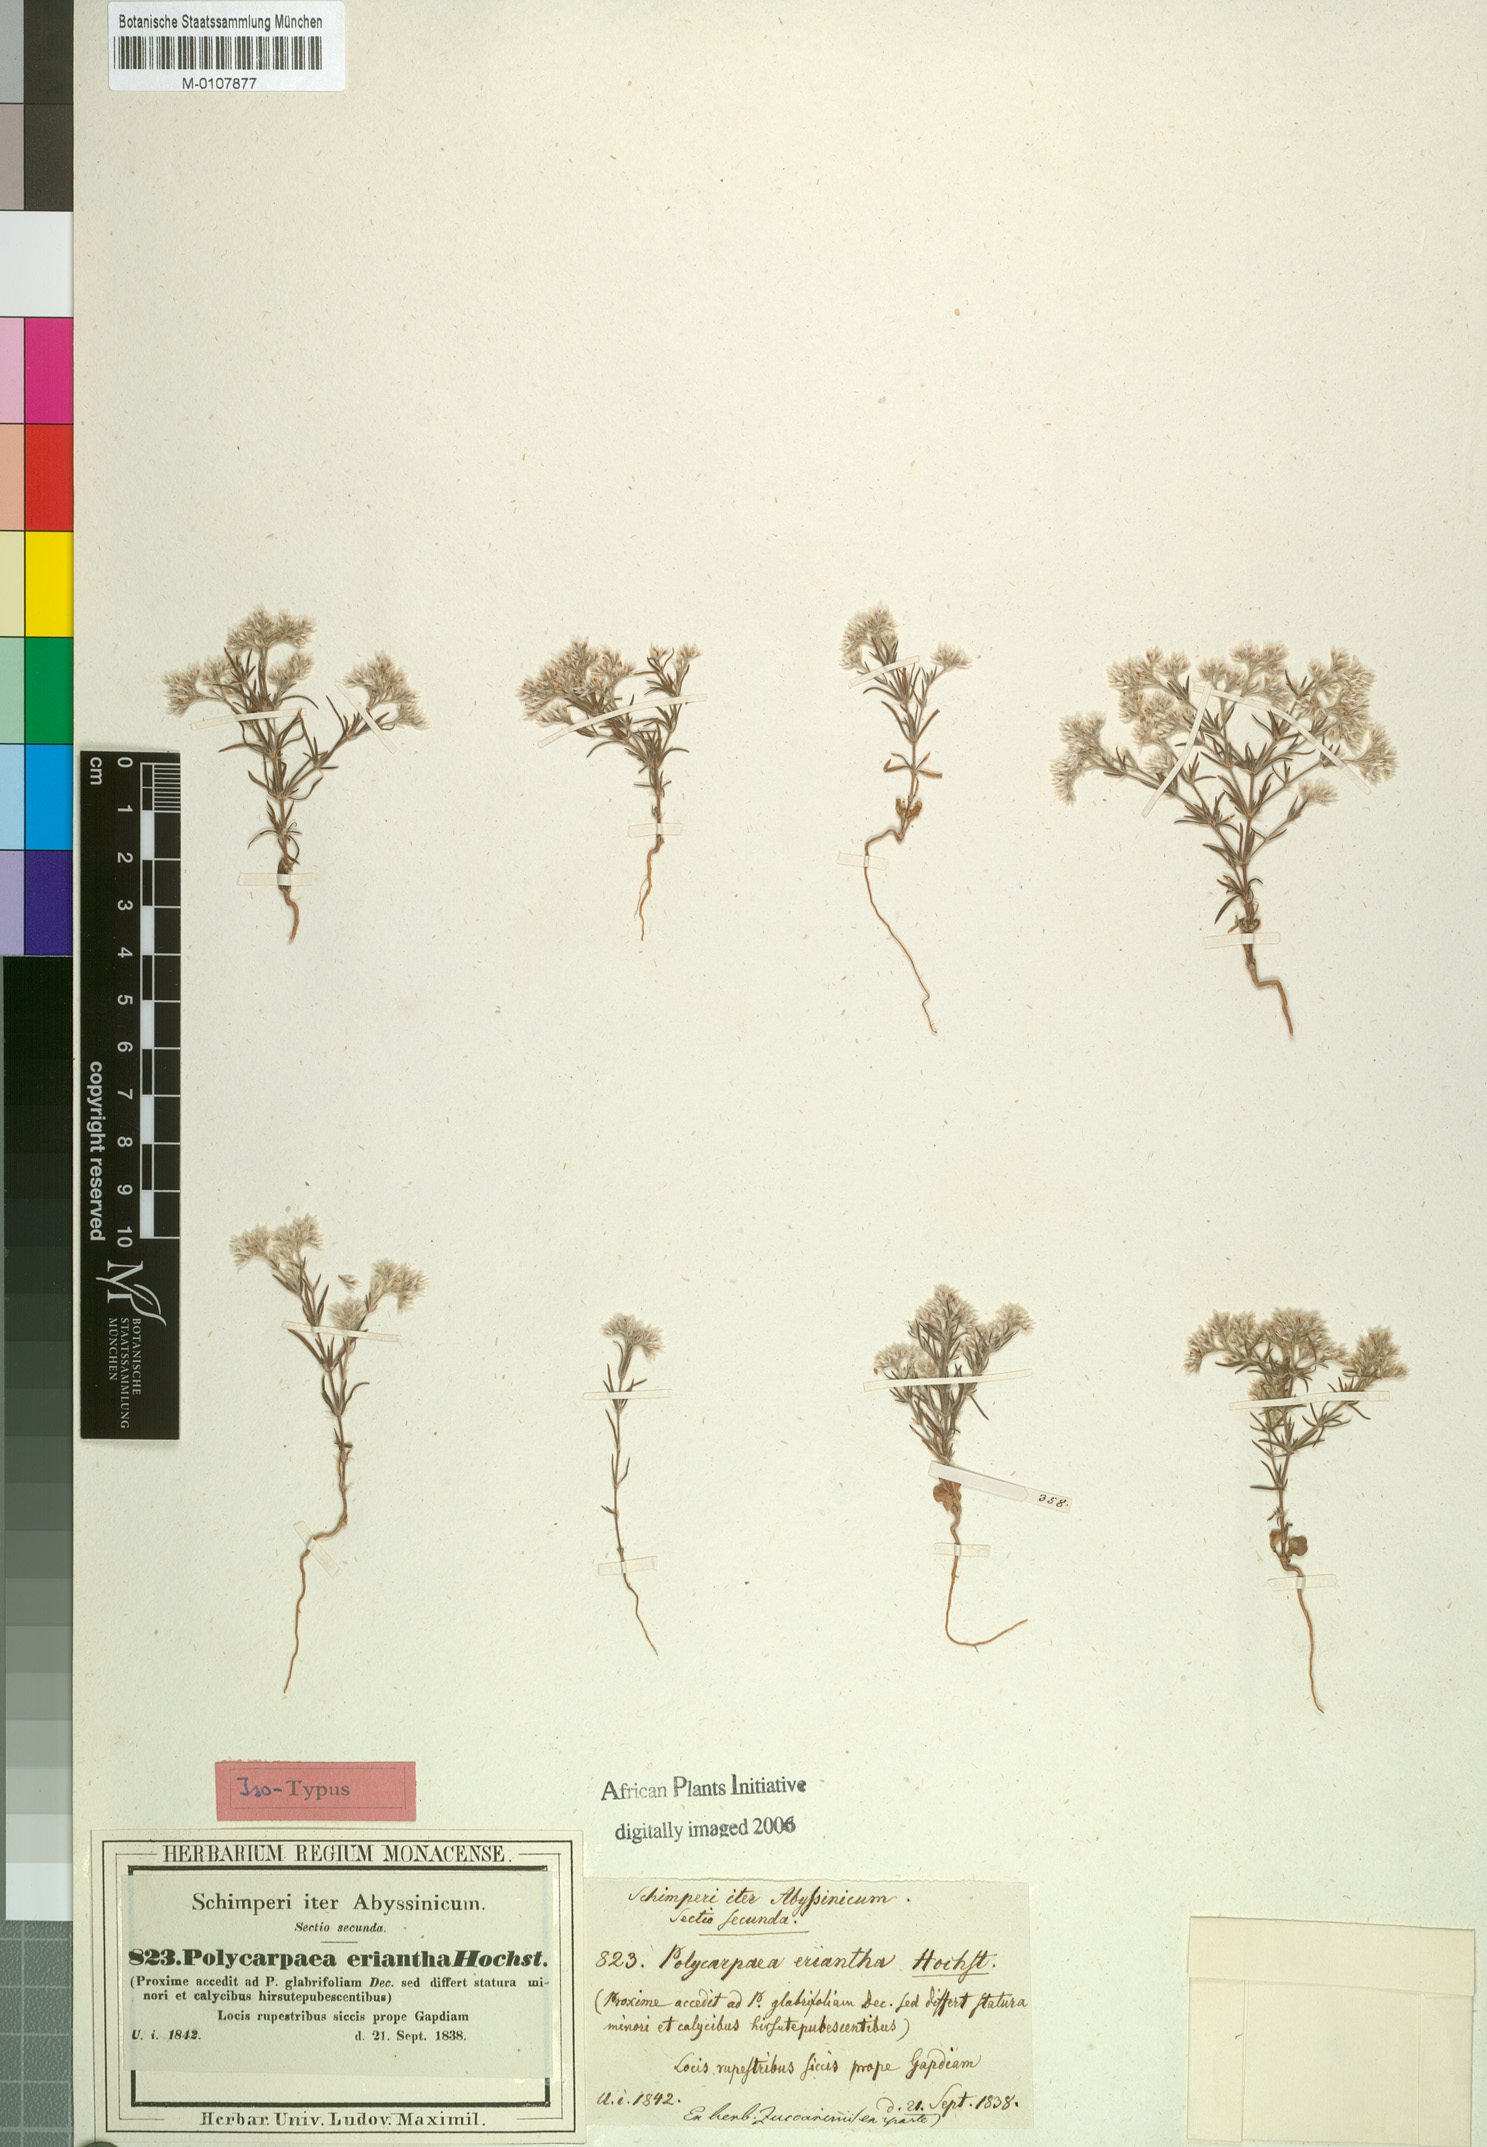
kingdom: Plantae
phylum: Tracheophyta
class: Magnoliopsida
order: Caryophyllales
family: Caryophyllaceae
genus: Polycarpaea
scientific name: Polycarpaea eriantha
